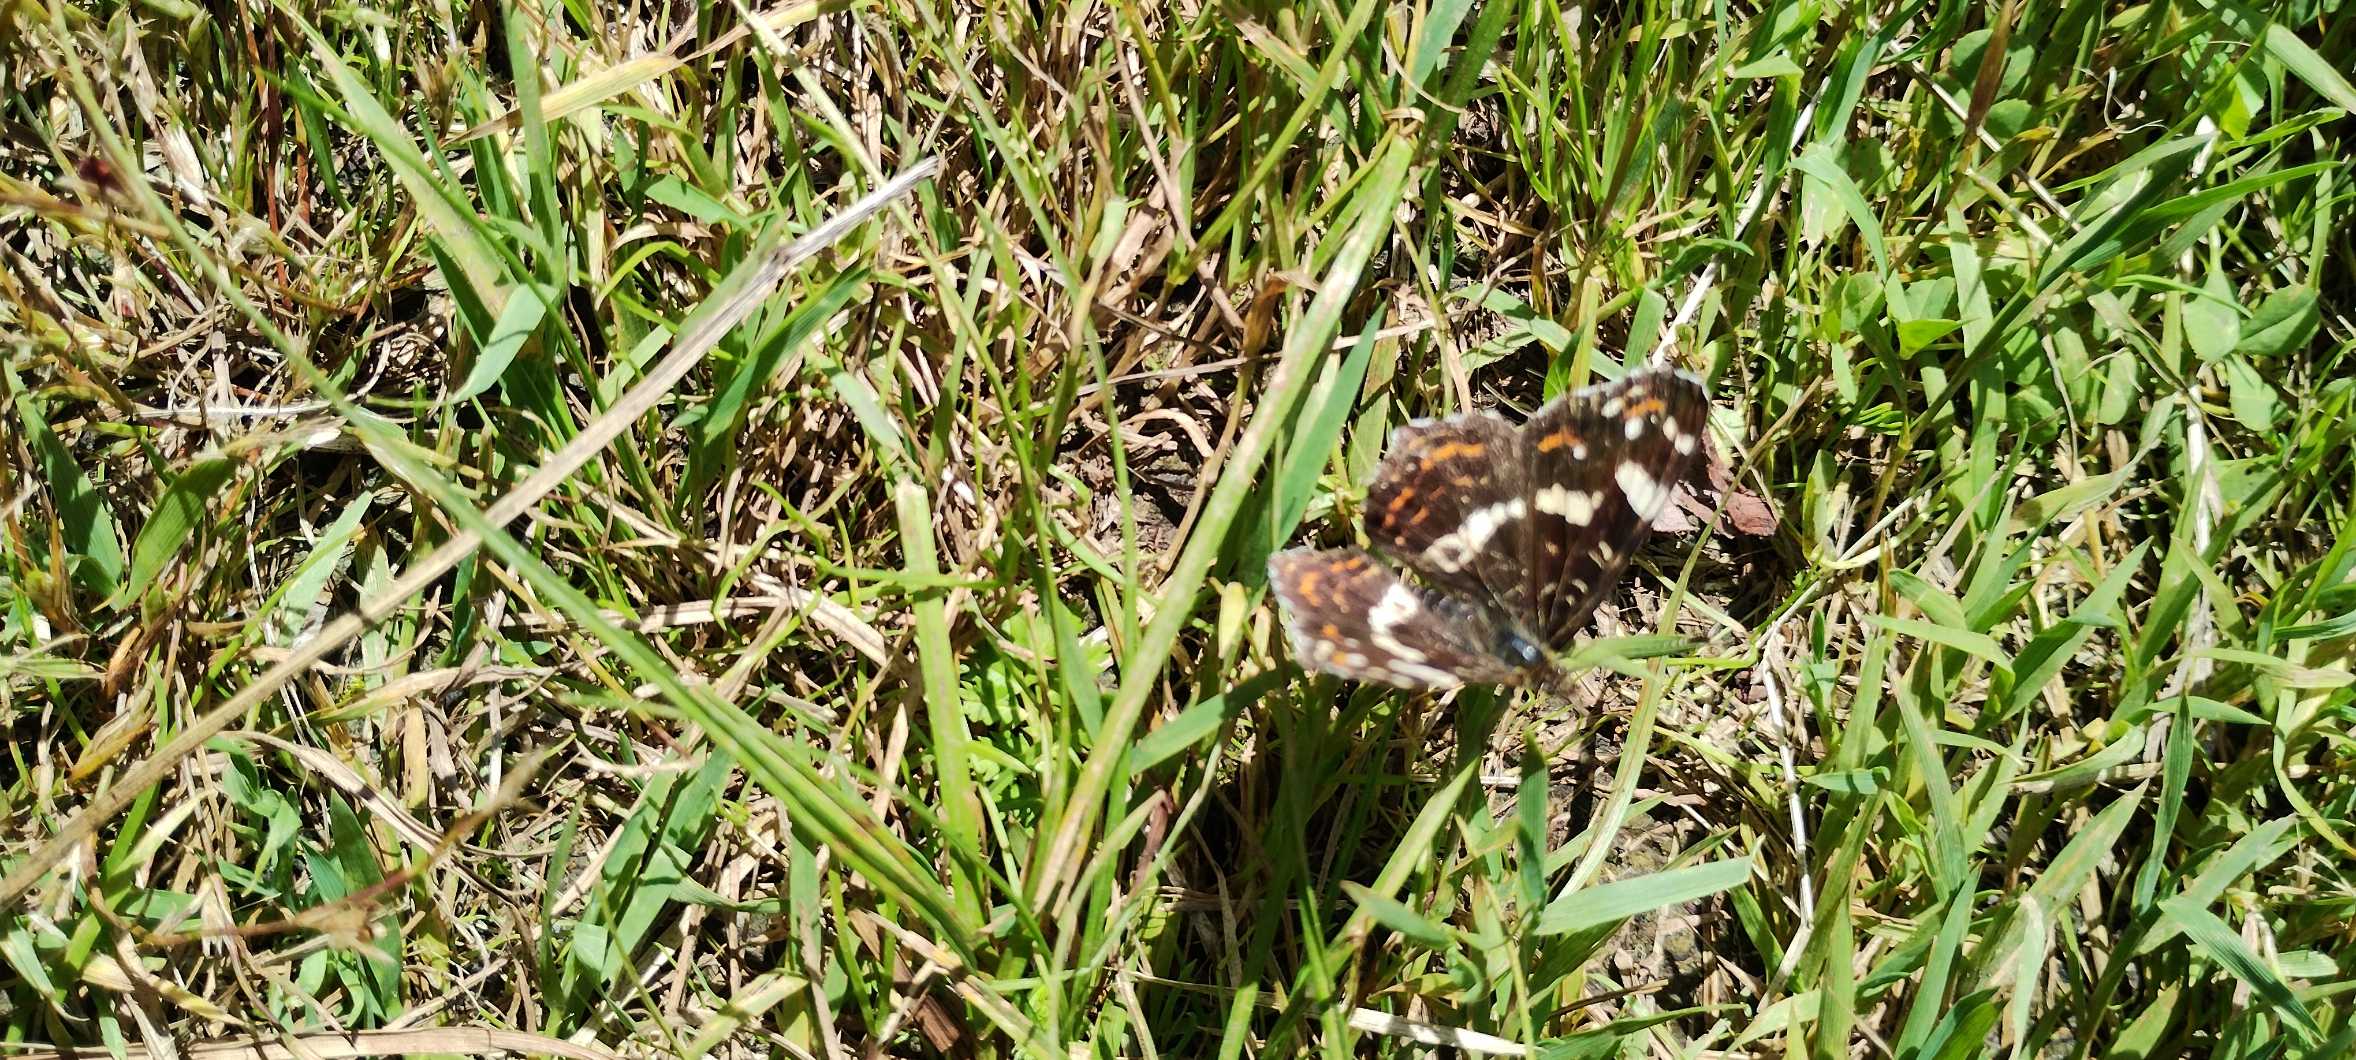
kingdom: Animalia
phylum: Arthropoda
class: Insecta
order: Lepidoptera
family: Nymphalidae
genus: Araschnia
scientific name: Araschnia levana
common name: Nældesommerfugl
